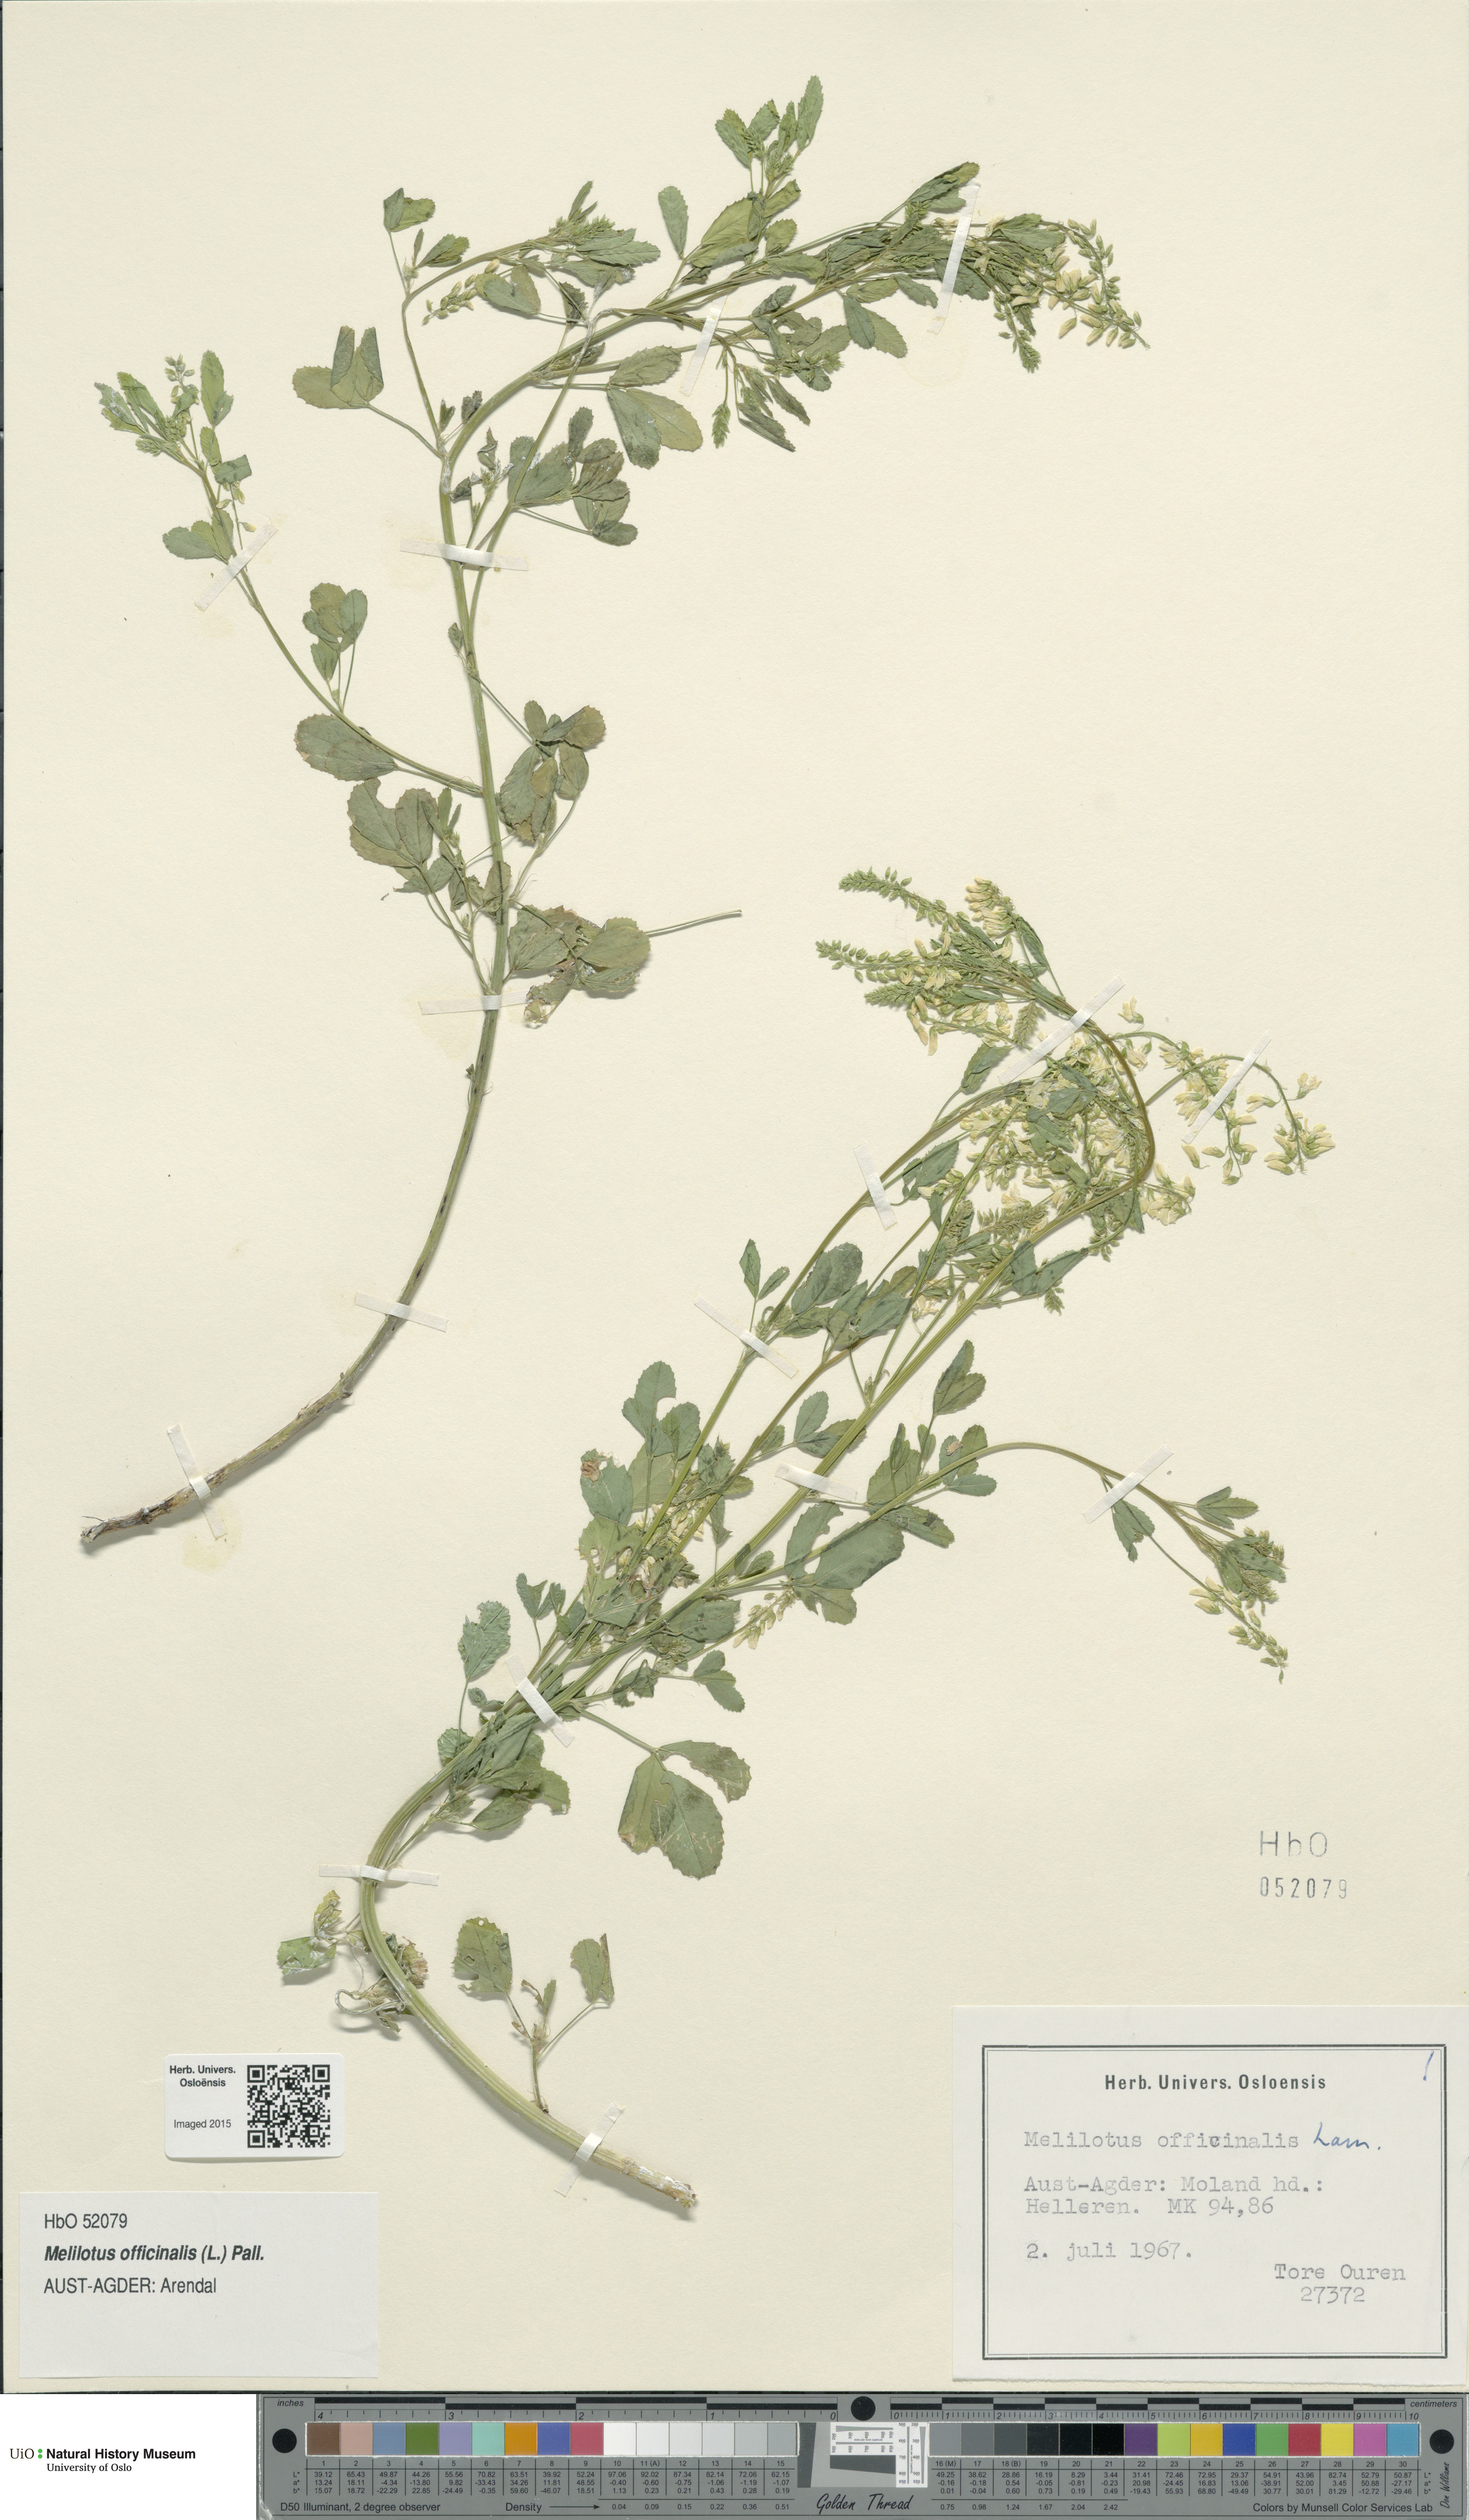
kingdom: Plantae
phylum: Tracheophyta
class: Magnoliopsida
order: Fabales
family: Fabaceae
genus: Melilotus
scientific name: Melilotus officinalis
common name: Sweetclover
